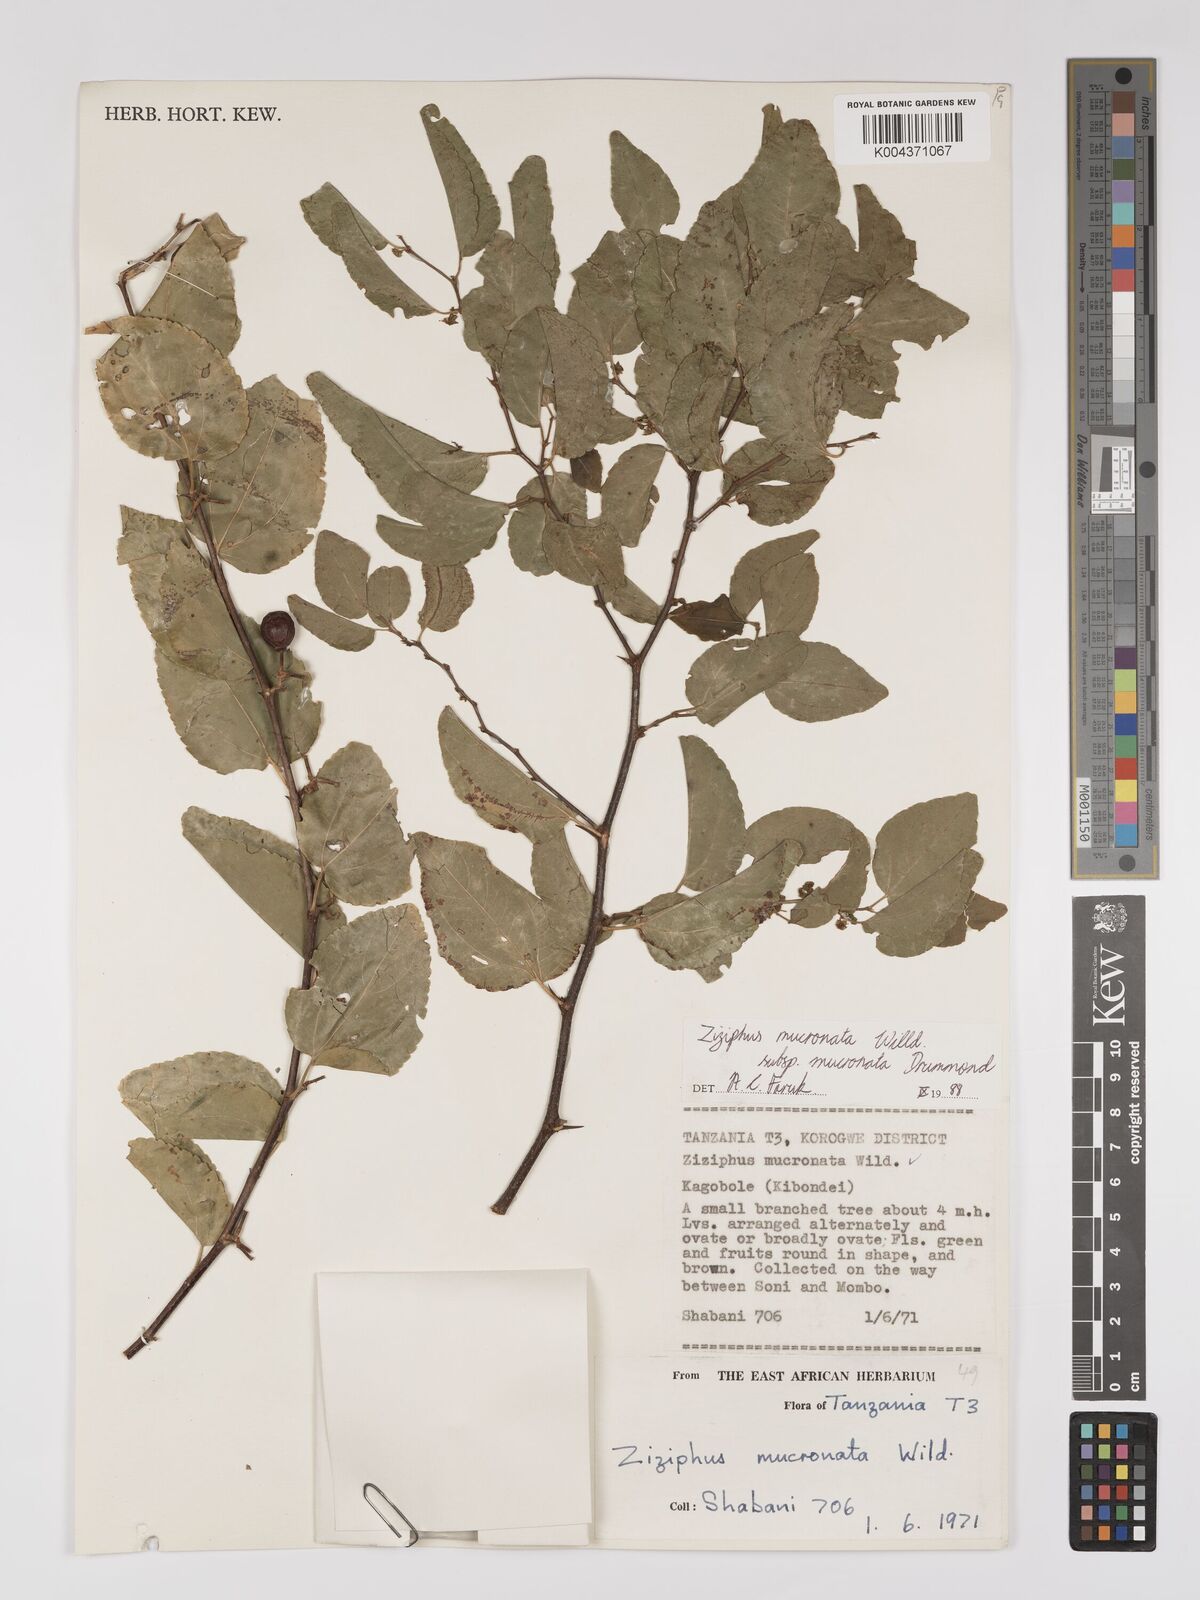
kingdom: Plantae
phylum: Tracheophyta
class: Magnoliopsida
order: Rosales
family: Rhamnaceae
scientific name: Rhamnaceae
